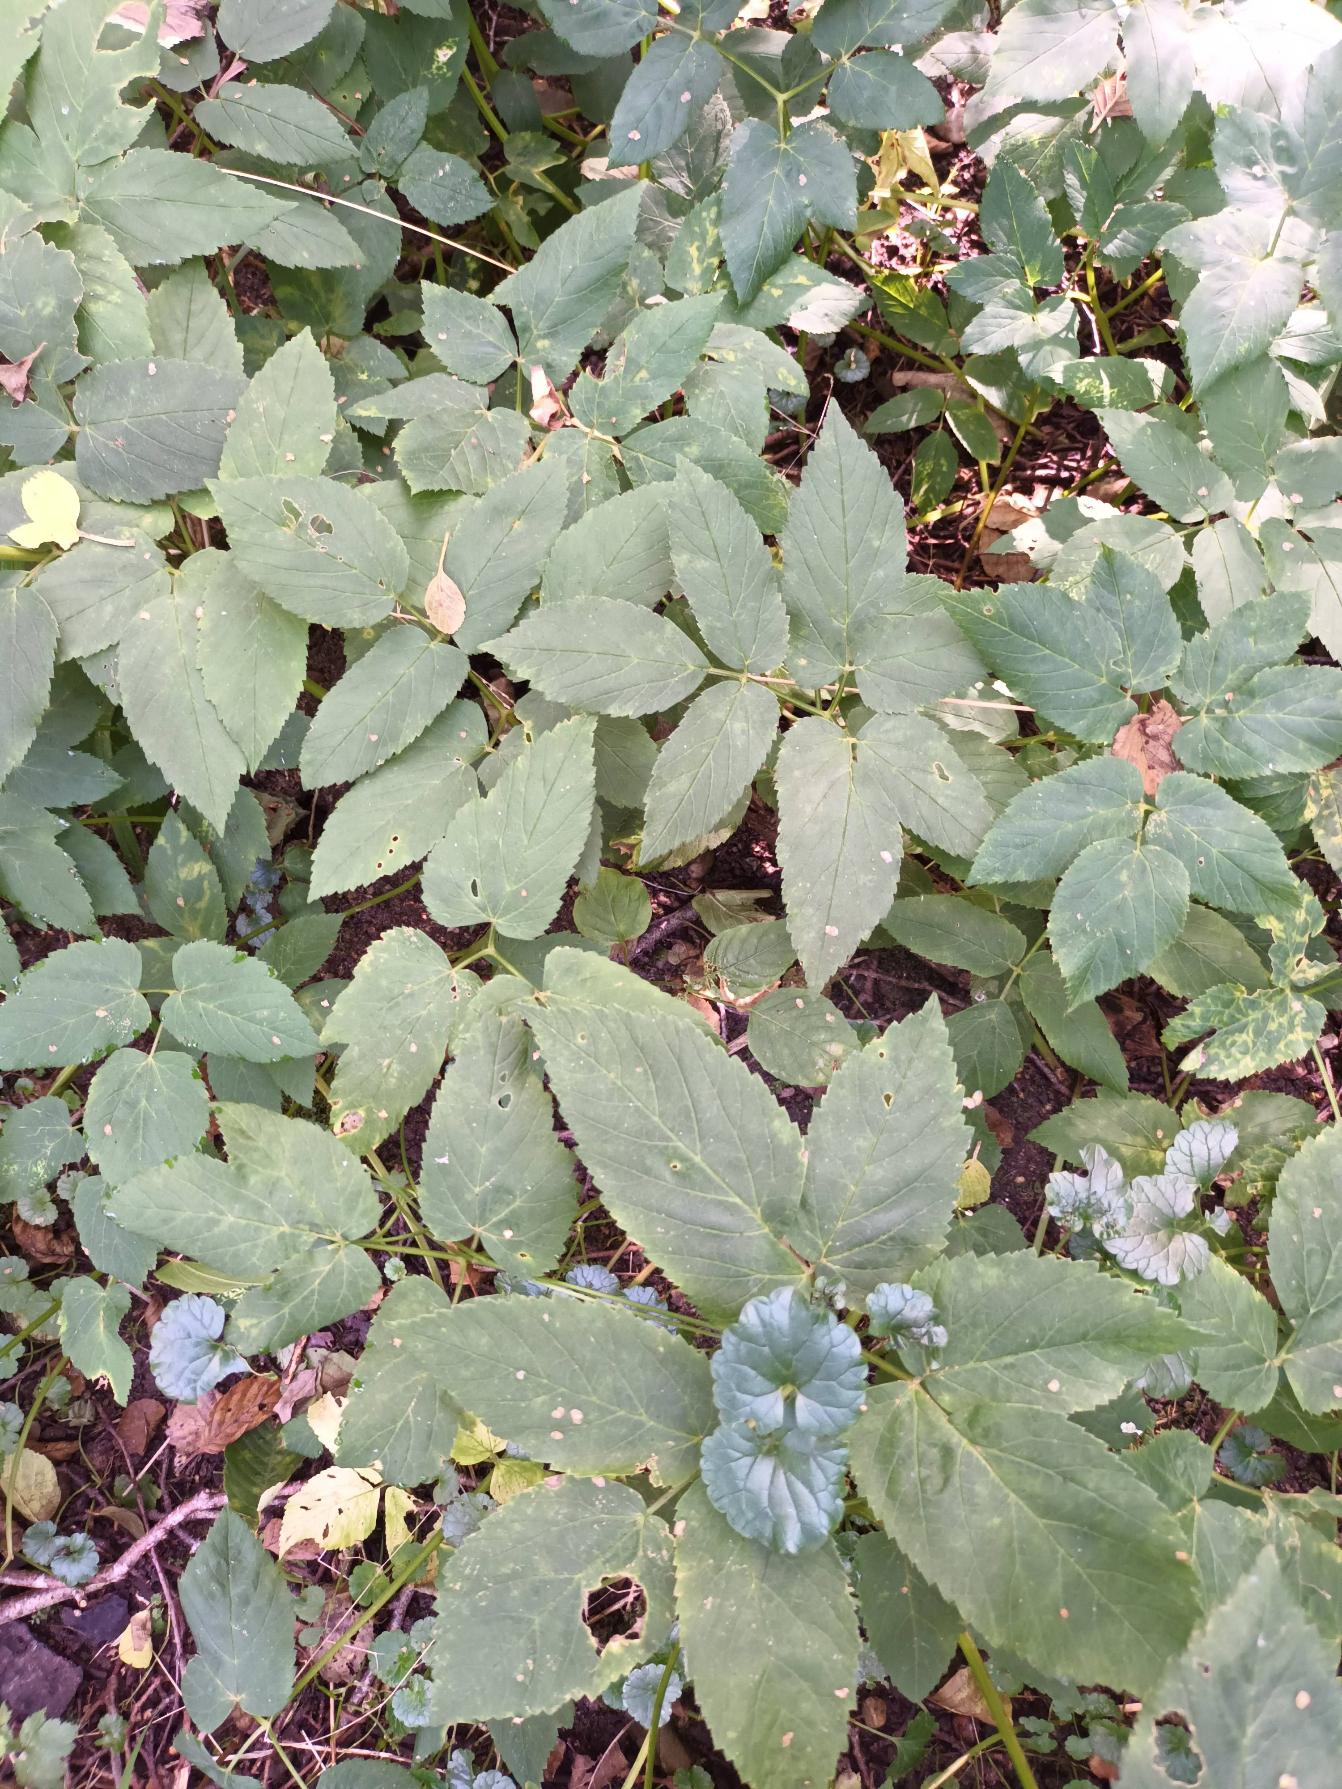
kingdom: Plantae
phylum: Tracheophyta
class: Magnoliopsida
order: Apiales
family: Apiaceae
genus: Aegopodium
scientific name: Aegopodium podagraria
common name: Skvalderkål
